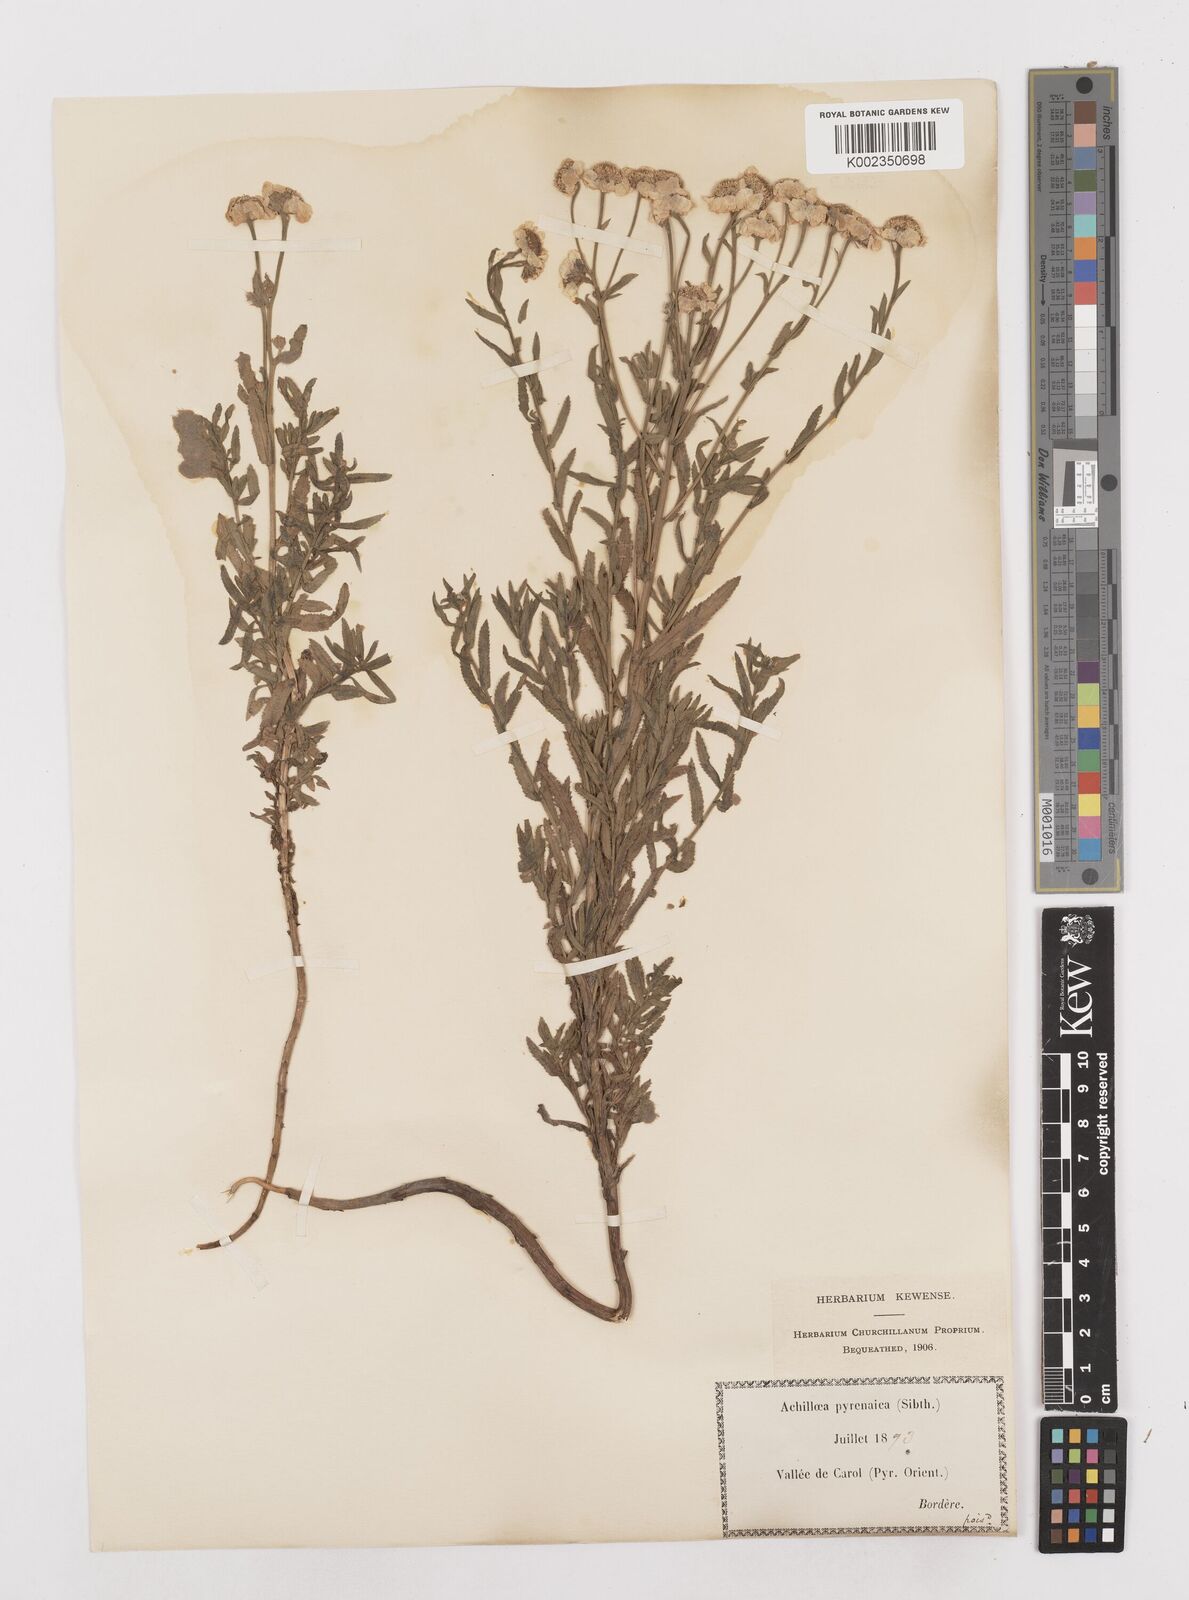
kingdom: Plantae
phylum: Tracheophyta
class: Magnoliopsida
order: Asterales
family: Asteraceae
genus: Achillea
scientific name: Achillea pyrenaica
